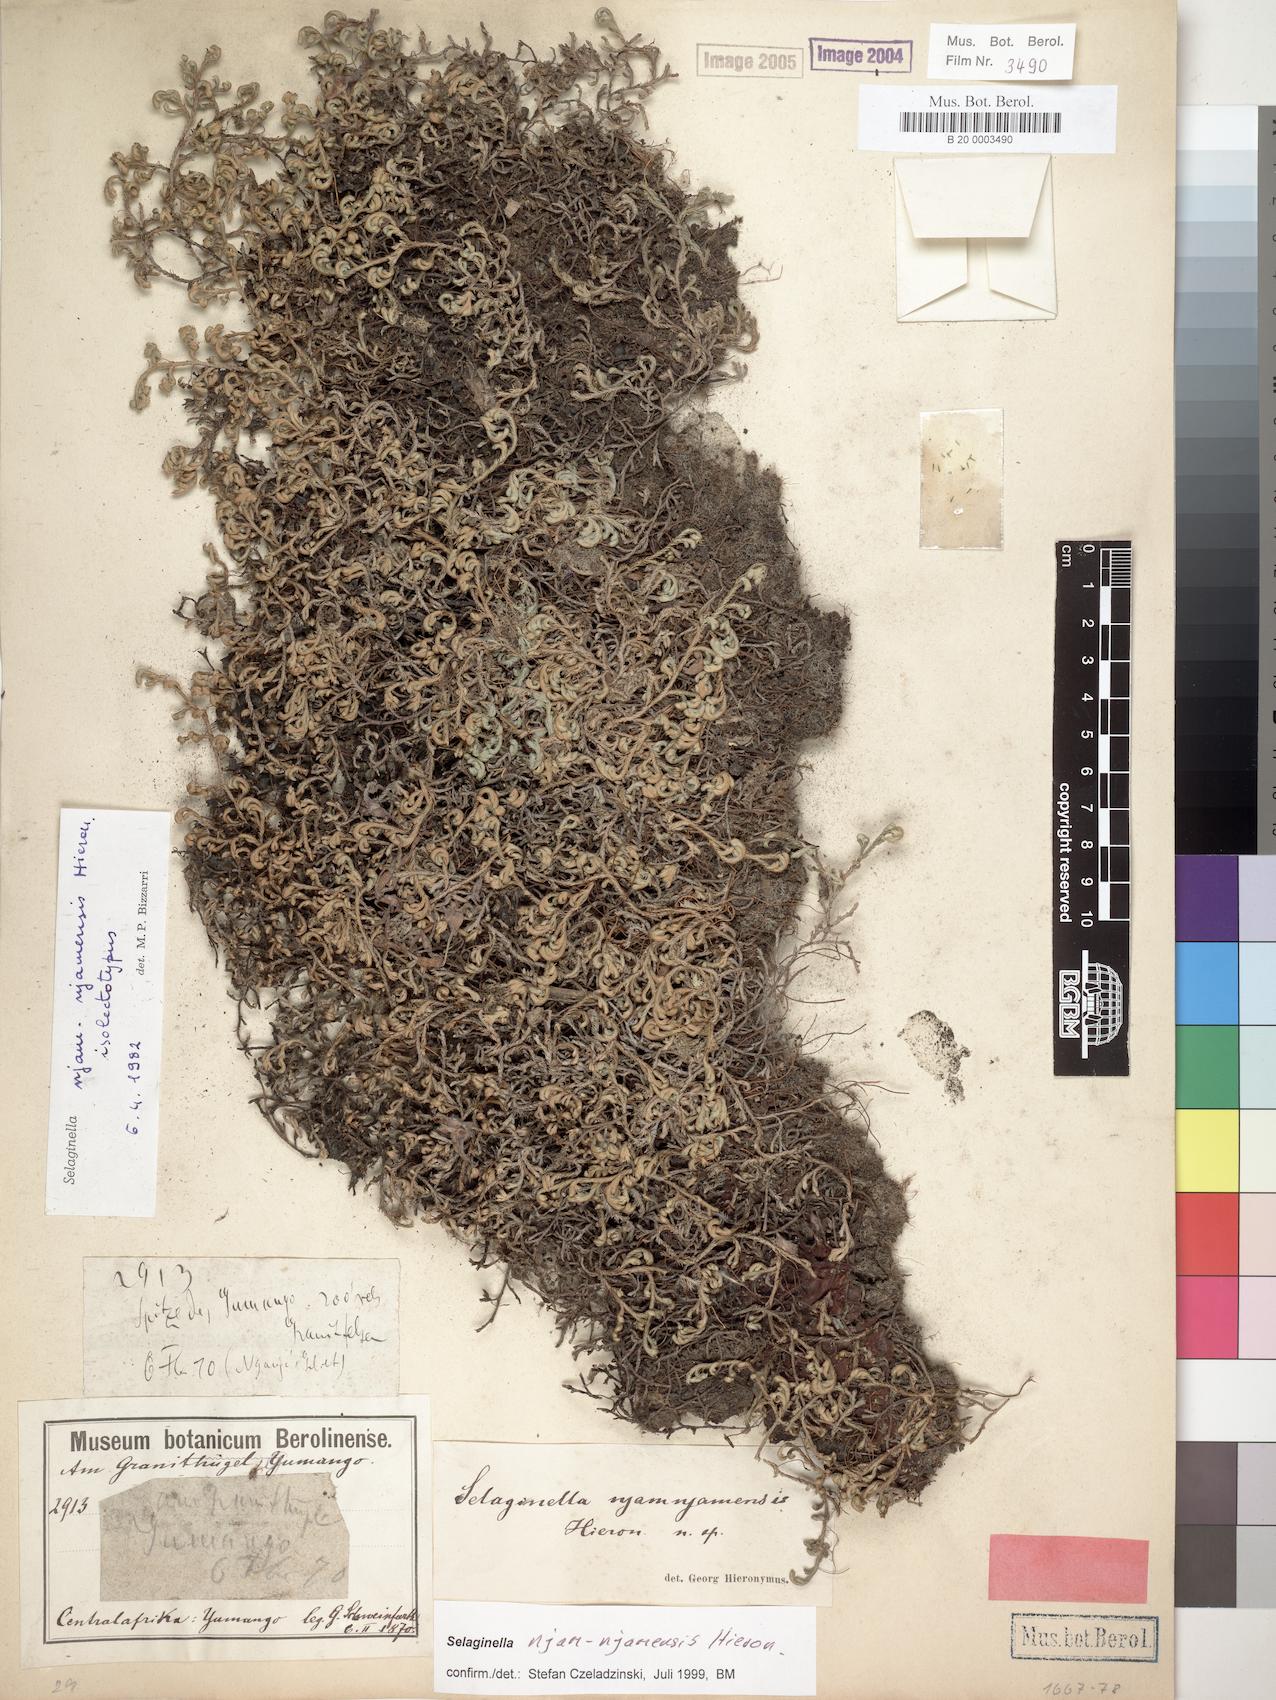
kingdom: Plantae
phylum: Tracheophyta
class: Lycopodiopsida
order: Selaginellales
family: Selaginellaceae
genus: Selaginella
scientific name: Selaginella njamnjamensis
